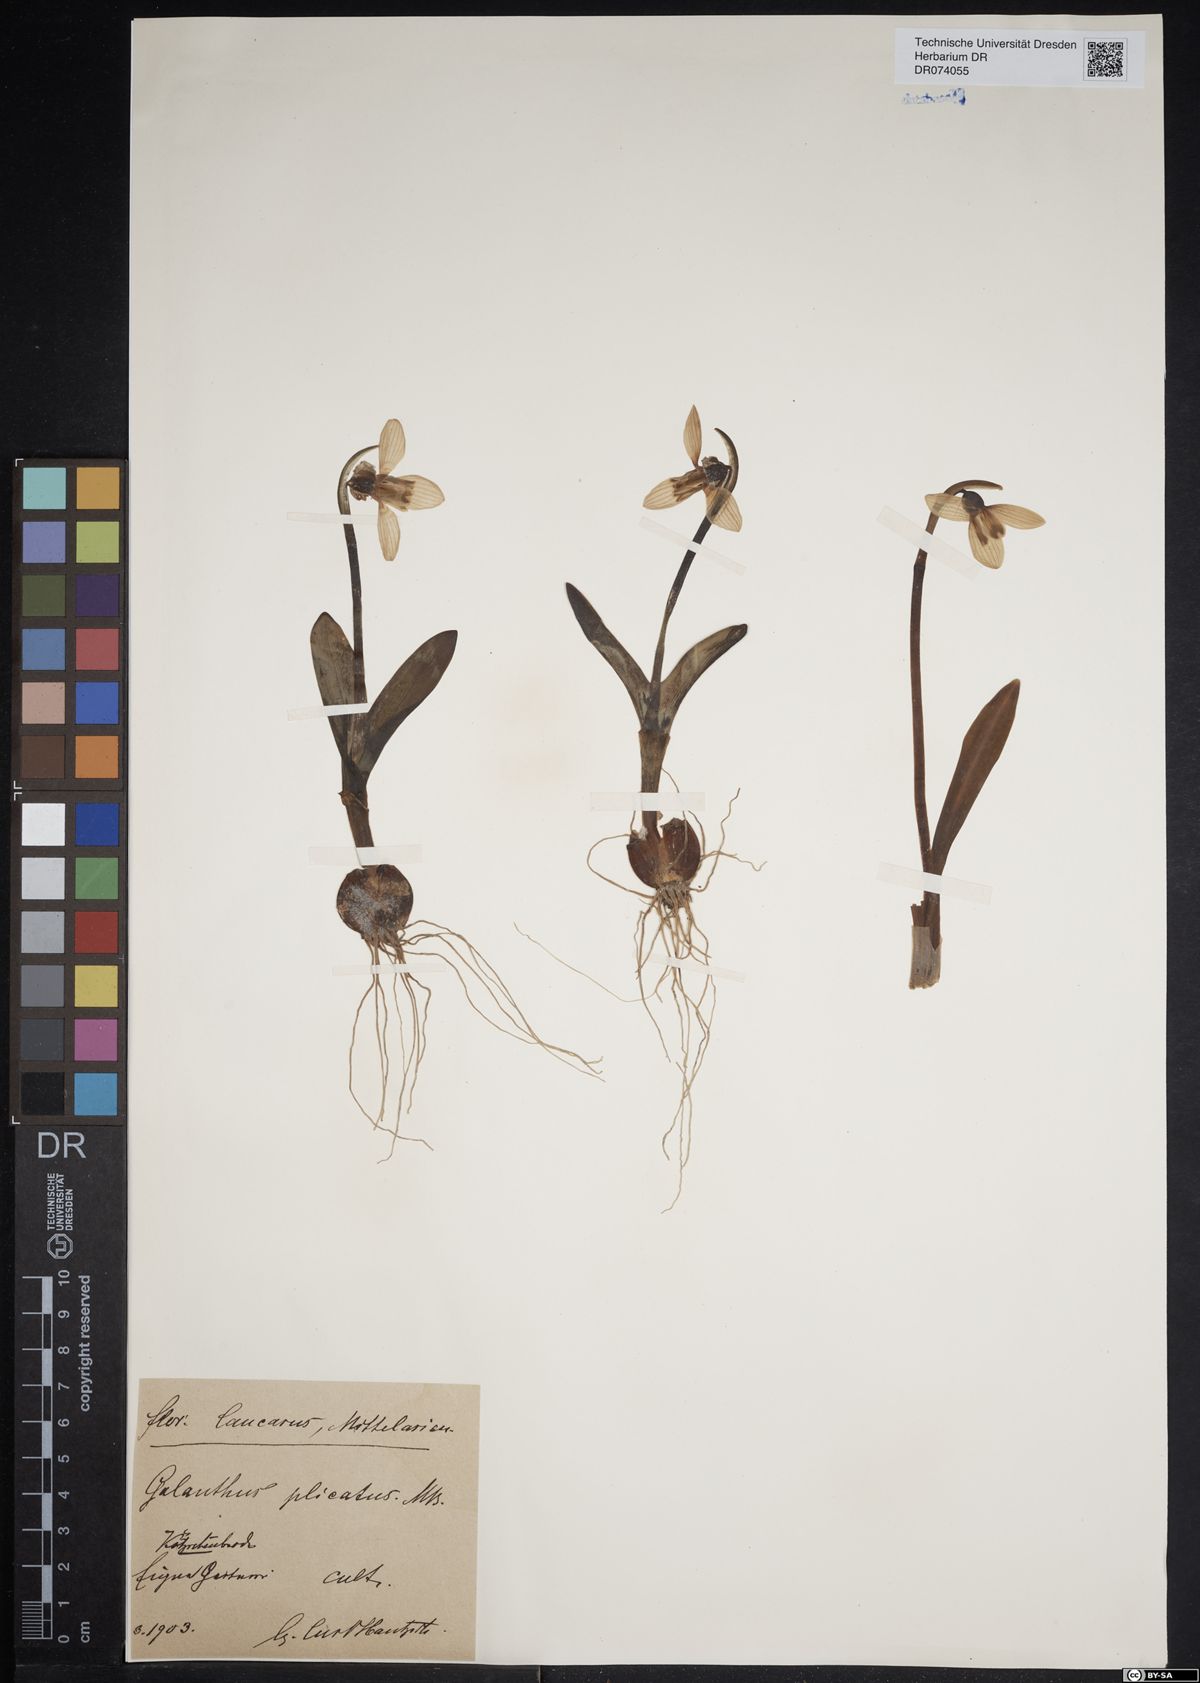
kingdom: Plantae
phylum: Tracheophyta
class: Liliopsida
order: Asparagales
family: Amaryllidaceae
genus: Galanthus
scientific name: Galanthus plicatus
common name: Pleated snowdrop
